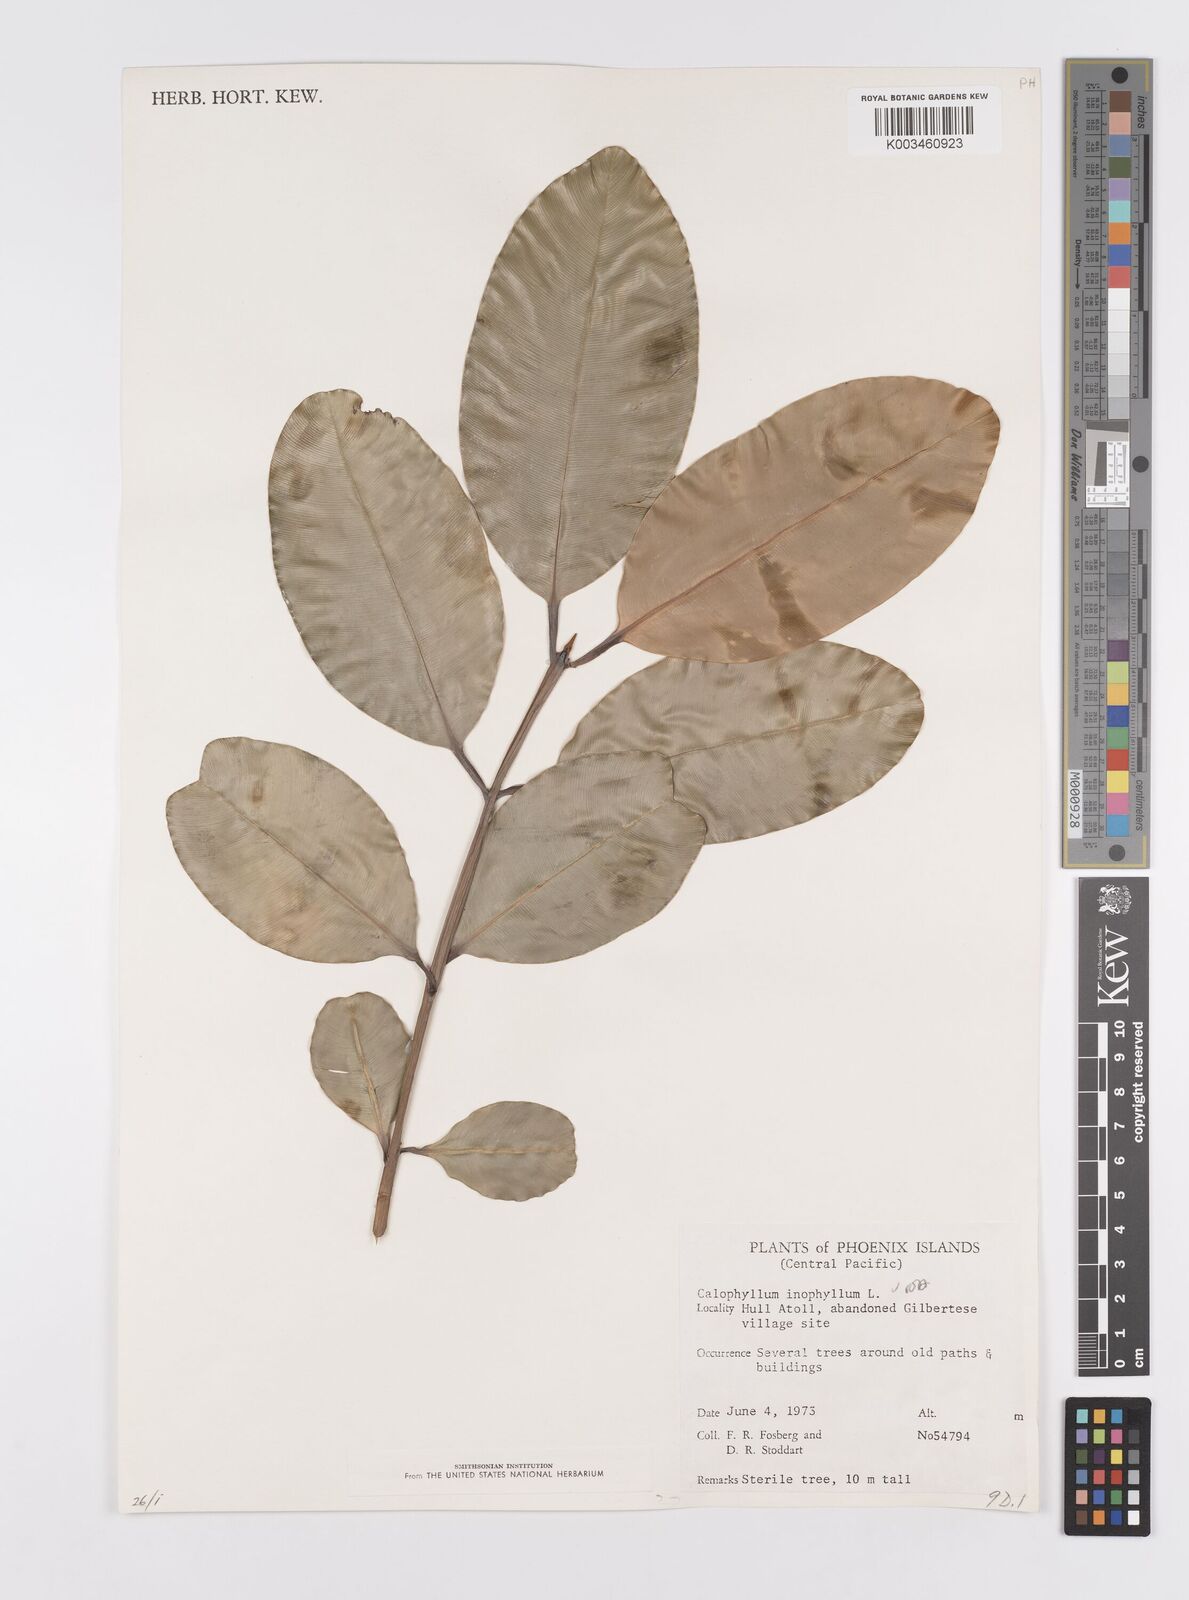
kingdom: Plantae
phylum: Tracheophyta
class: Magnoliopsida
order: Malpighiales
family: Calophyllaceae
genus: Calophyllum
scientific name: Calophyllum inophyllum
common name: Alexandrian laurel
